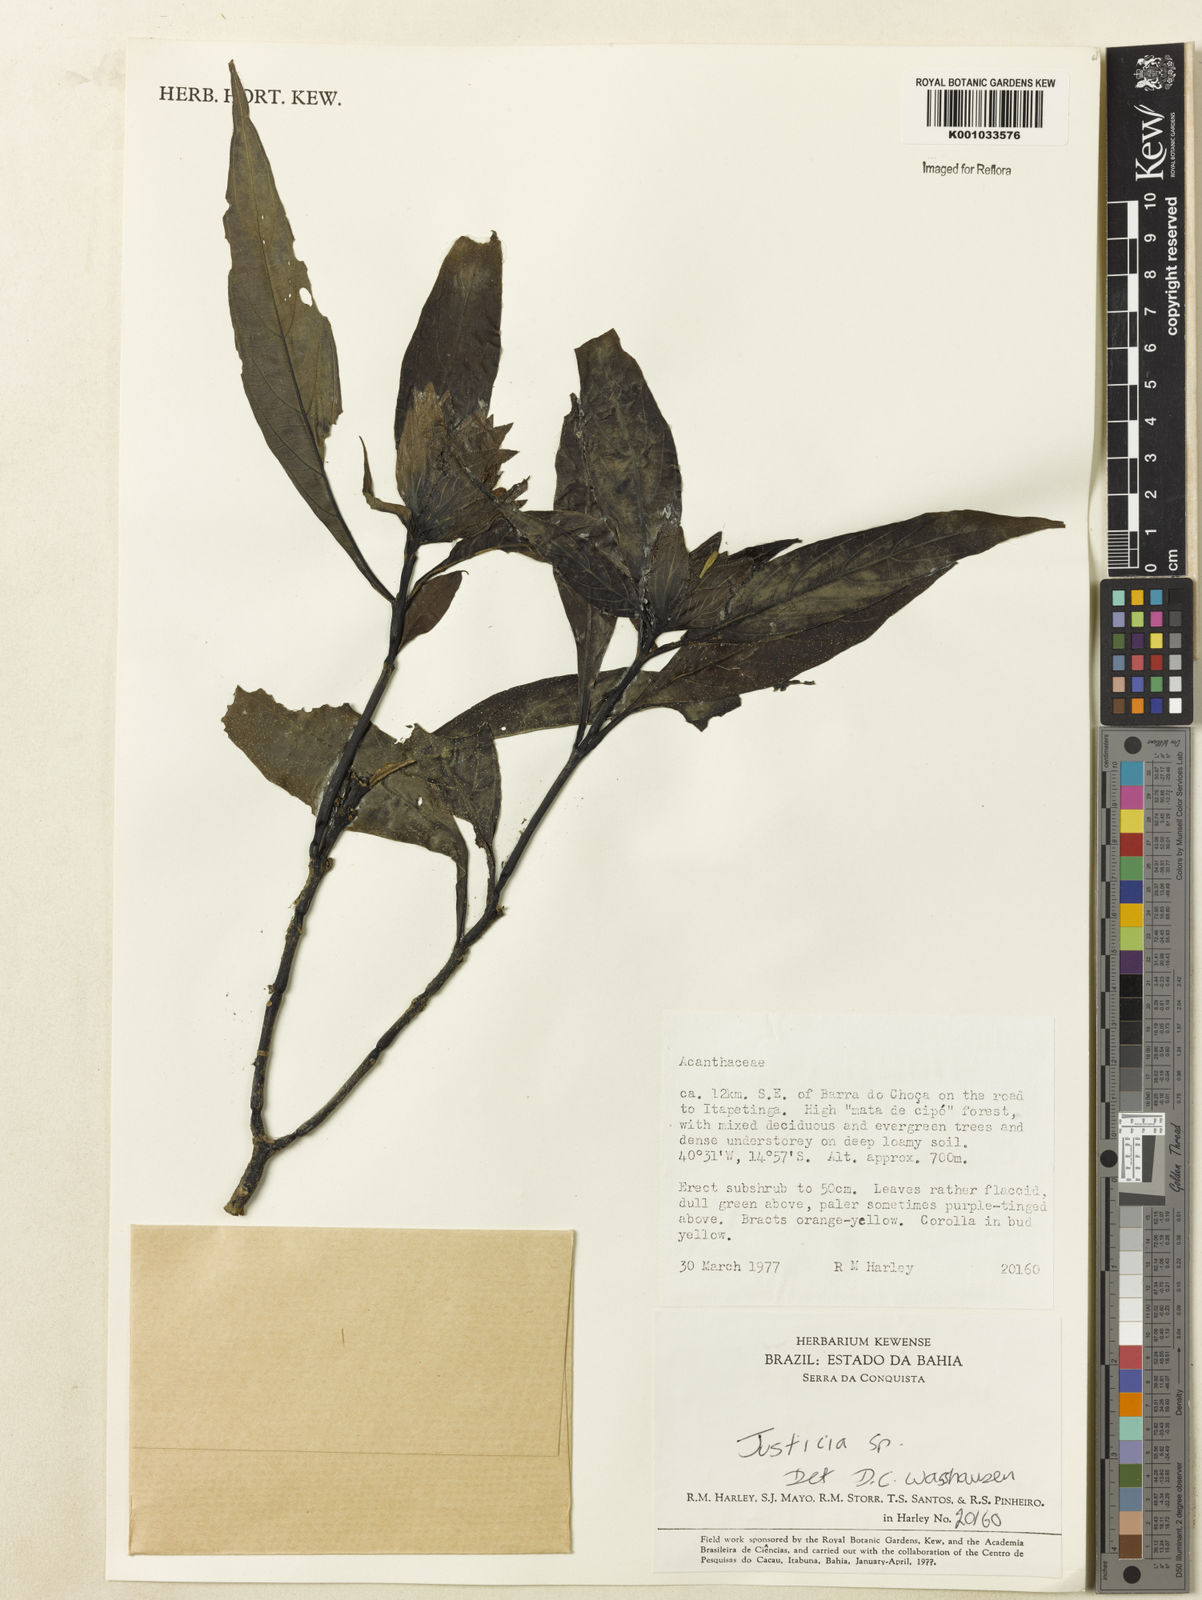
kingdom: Plantae
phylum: Tracheophyta
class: Magnoliopsida
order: Lamiales
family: Acanthaceae
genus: Justicia
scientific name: Justicia
